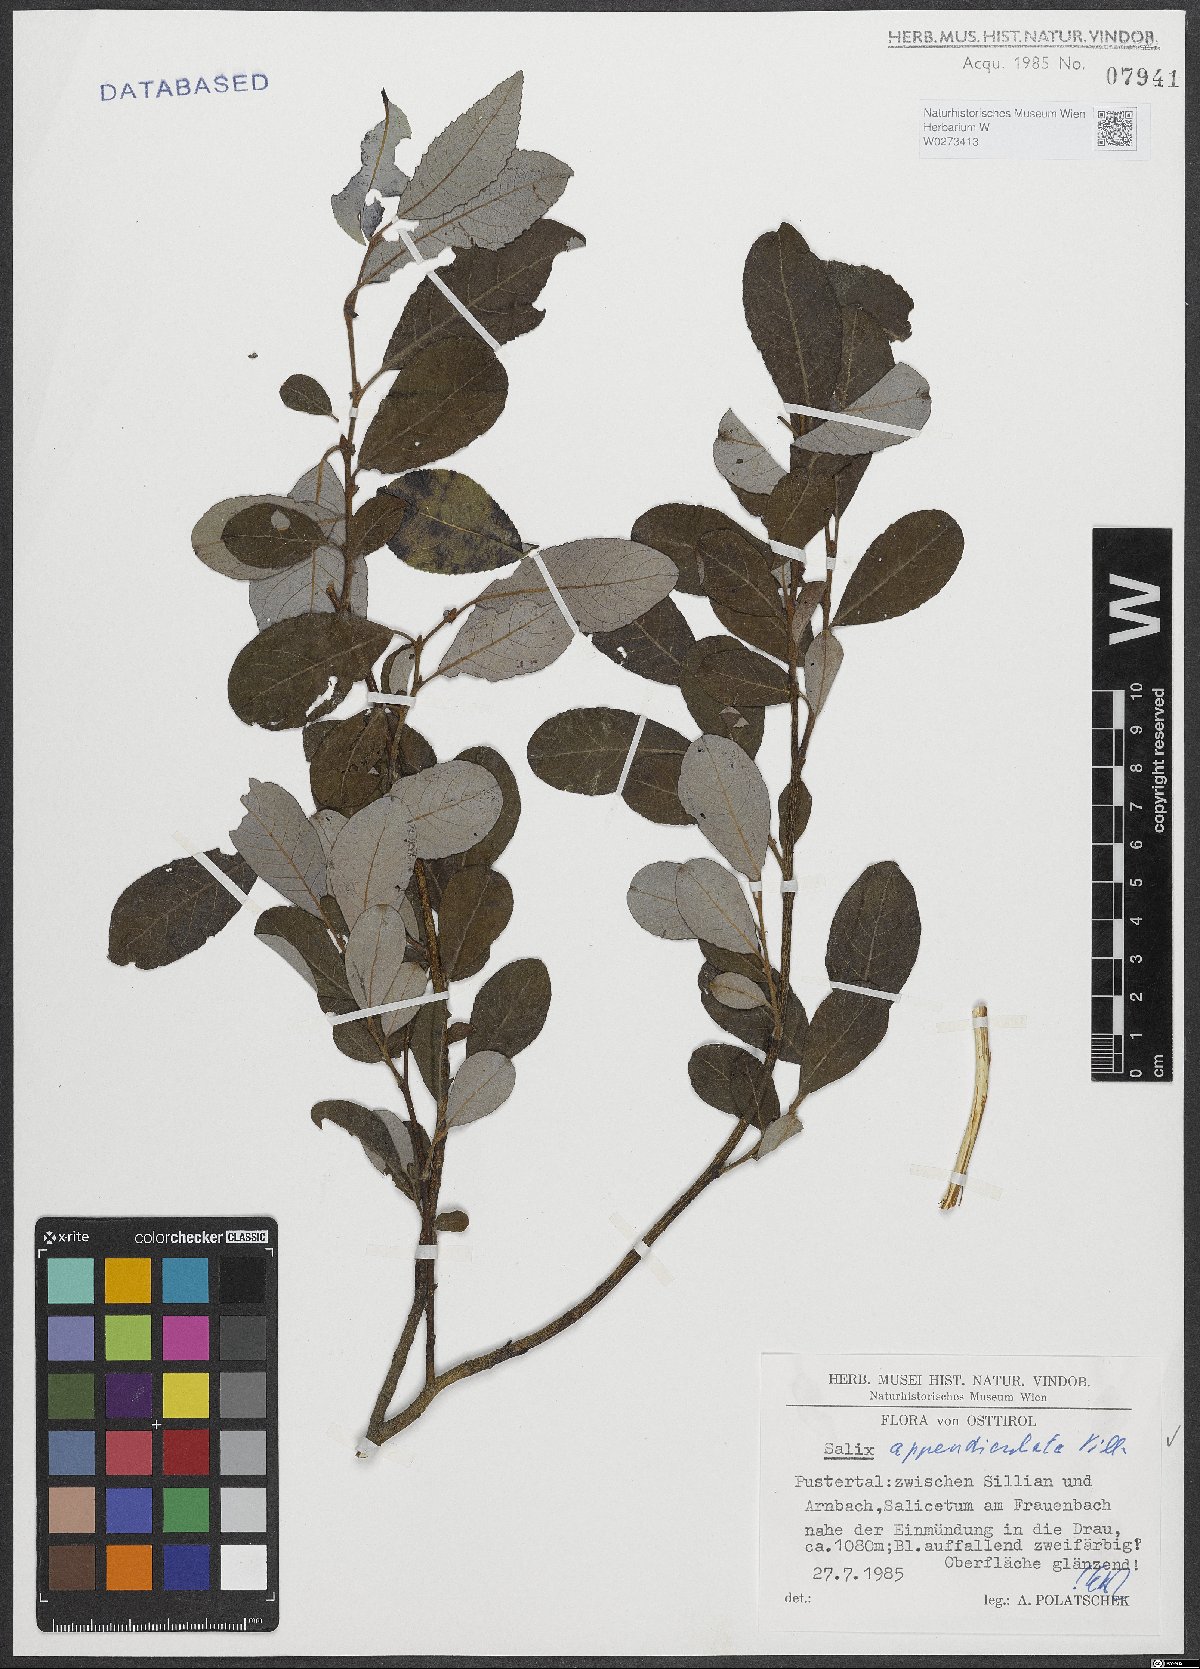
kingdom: Plantae
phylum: Tracheophyta
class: Magnoliopsida
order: Malpighiales
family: Salicaceae
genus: Salix
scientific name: Salix appendiculata
